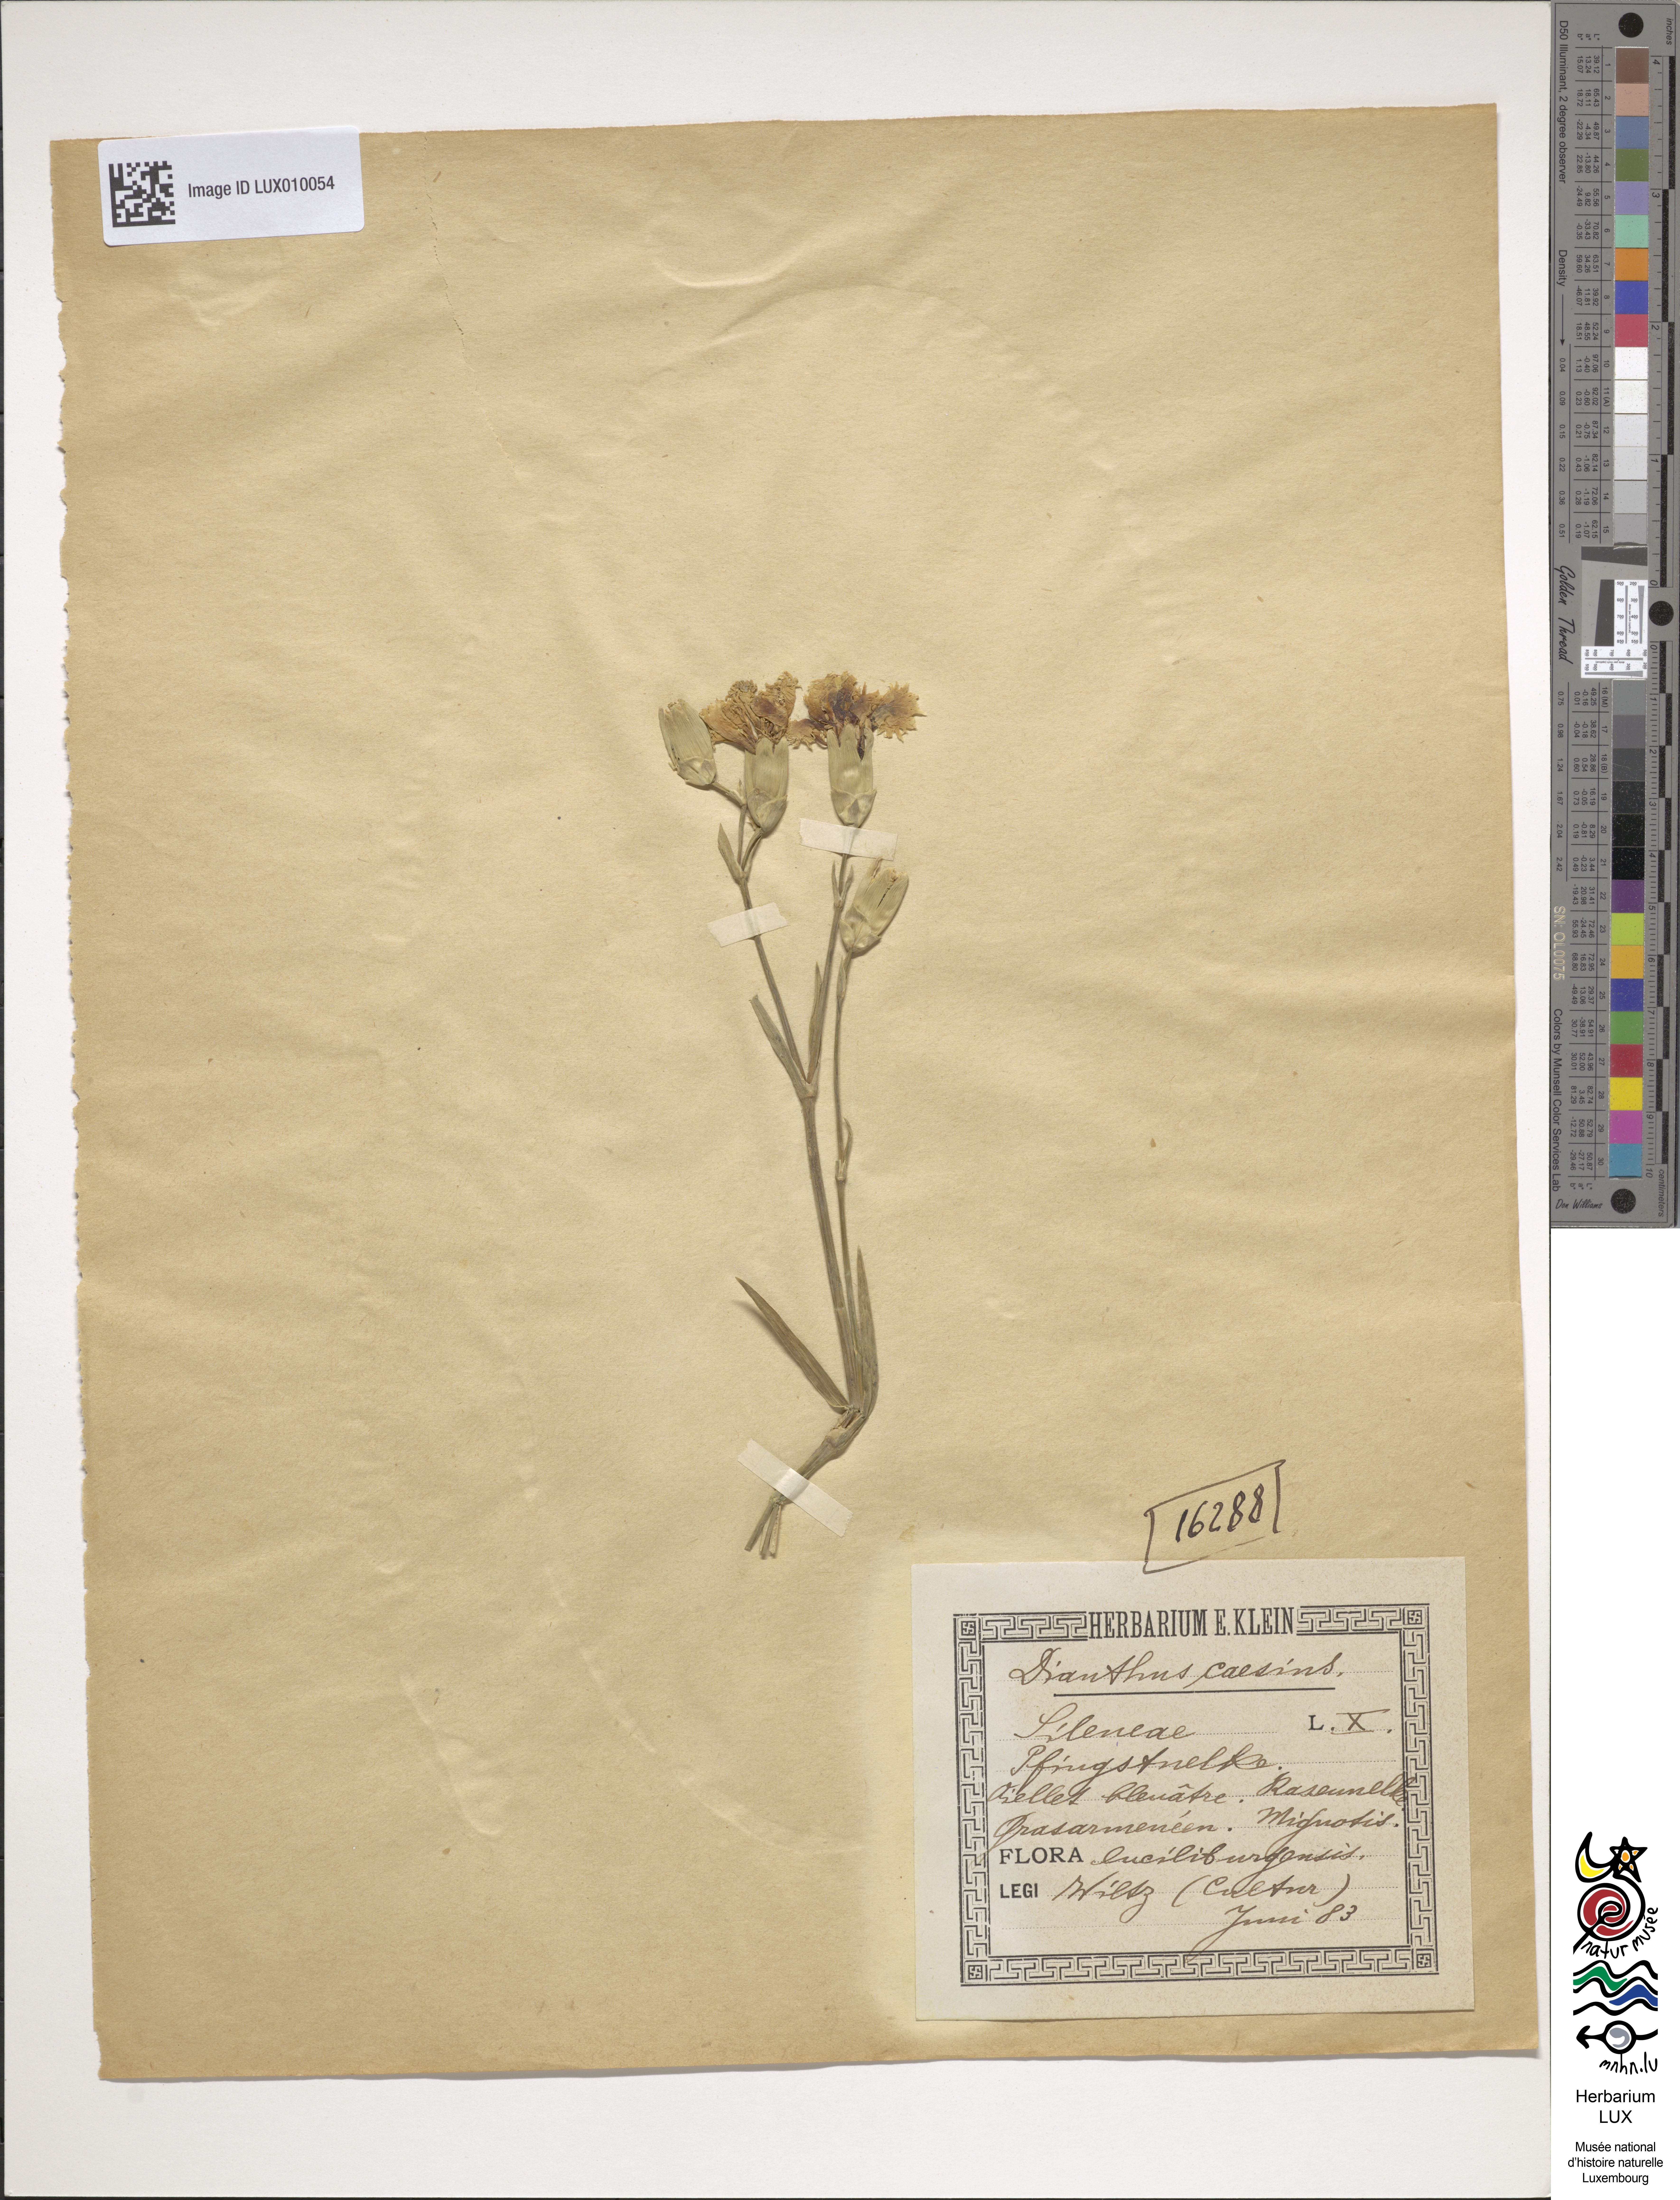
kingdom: Plantae
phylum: Tracheophyta
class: Magnoliopsida
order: Caryophyllales
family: Caryophyllaceae
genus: Dianthus
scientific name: Dianthus gratianopolitanus
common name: Cheddar pink
